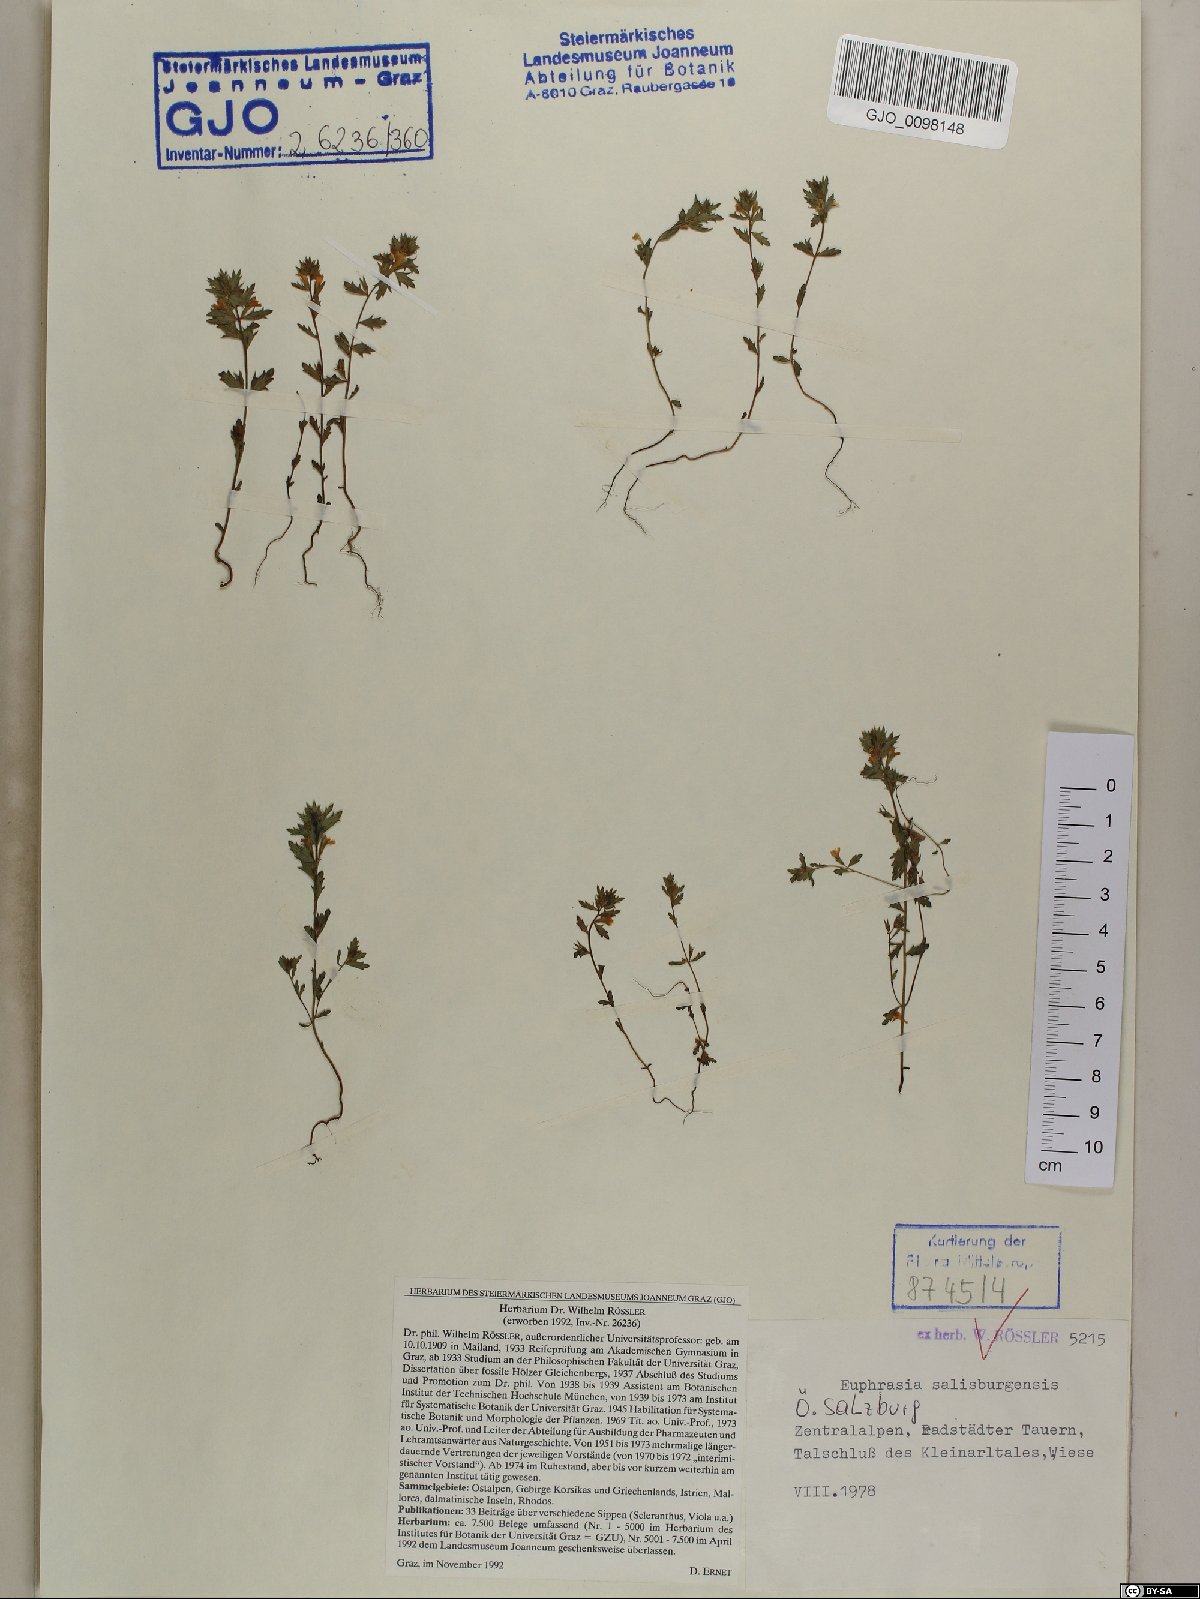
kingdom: Plantae
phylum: Tracheophyta
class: Magnoliopsida
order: Lamiales
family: Orobanchaceae
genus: Euphrasia
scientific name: Euphrasia salisburgensis
